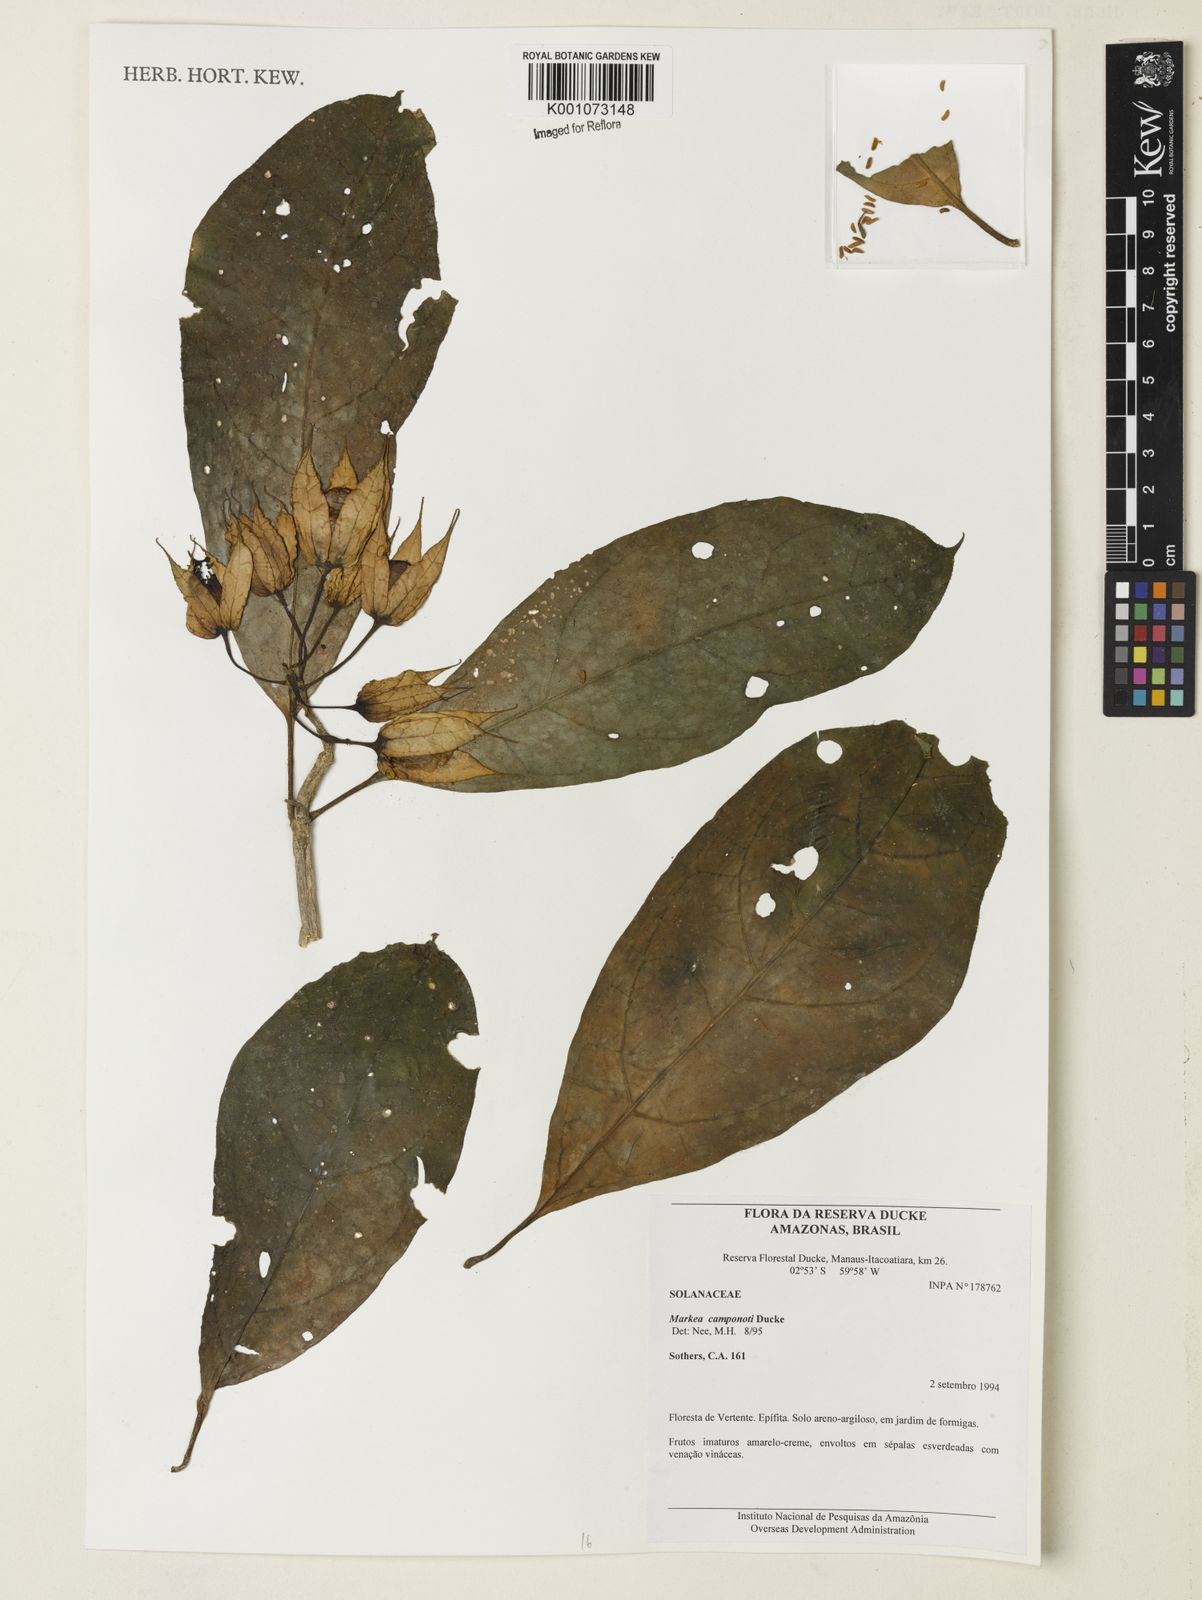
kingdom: Plantae
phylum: Tracheophyta
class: Magnoliopsida
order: Solanales
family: Solanaceae
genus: Markea
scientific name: Markea longiflora
